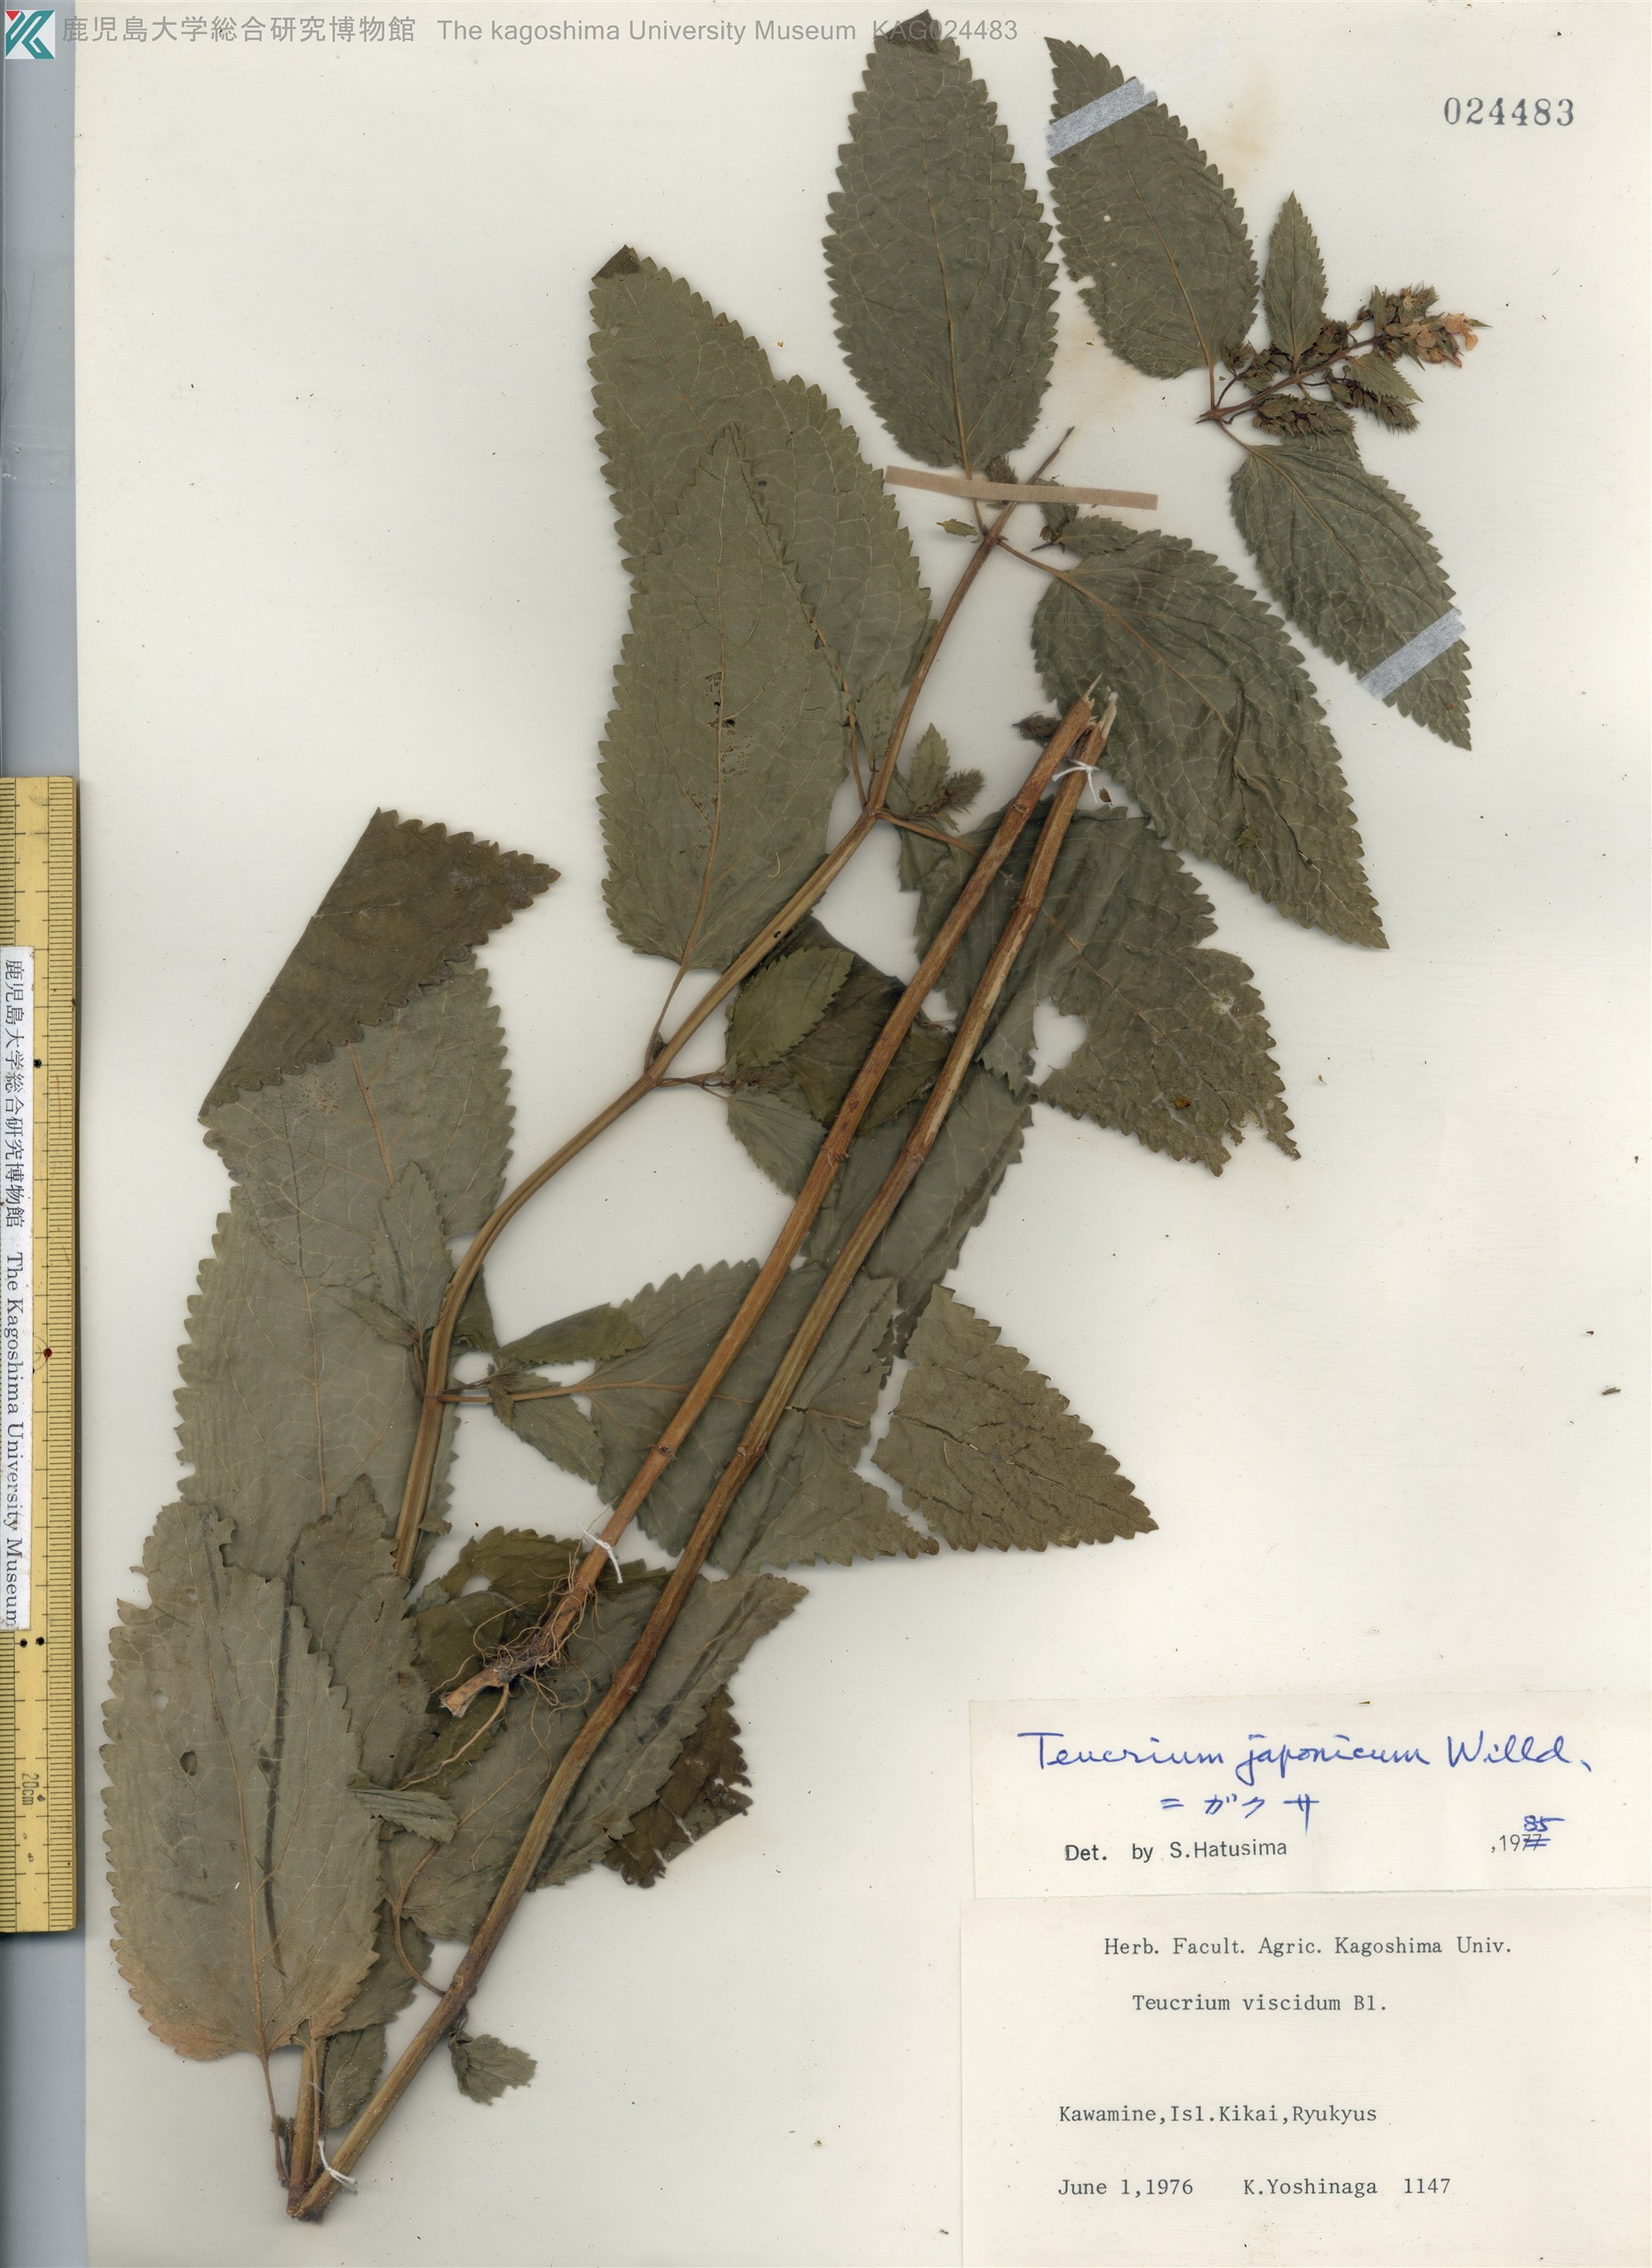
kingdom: Plantae
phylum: Tracheophyta
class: Magnoliopsida
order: Lamiales
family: Lamiaceae
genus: Teucrium
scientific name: Teucrium japonicum
